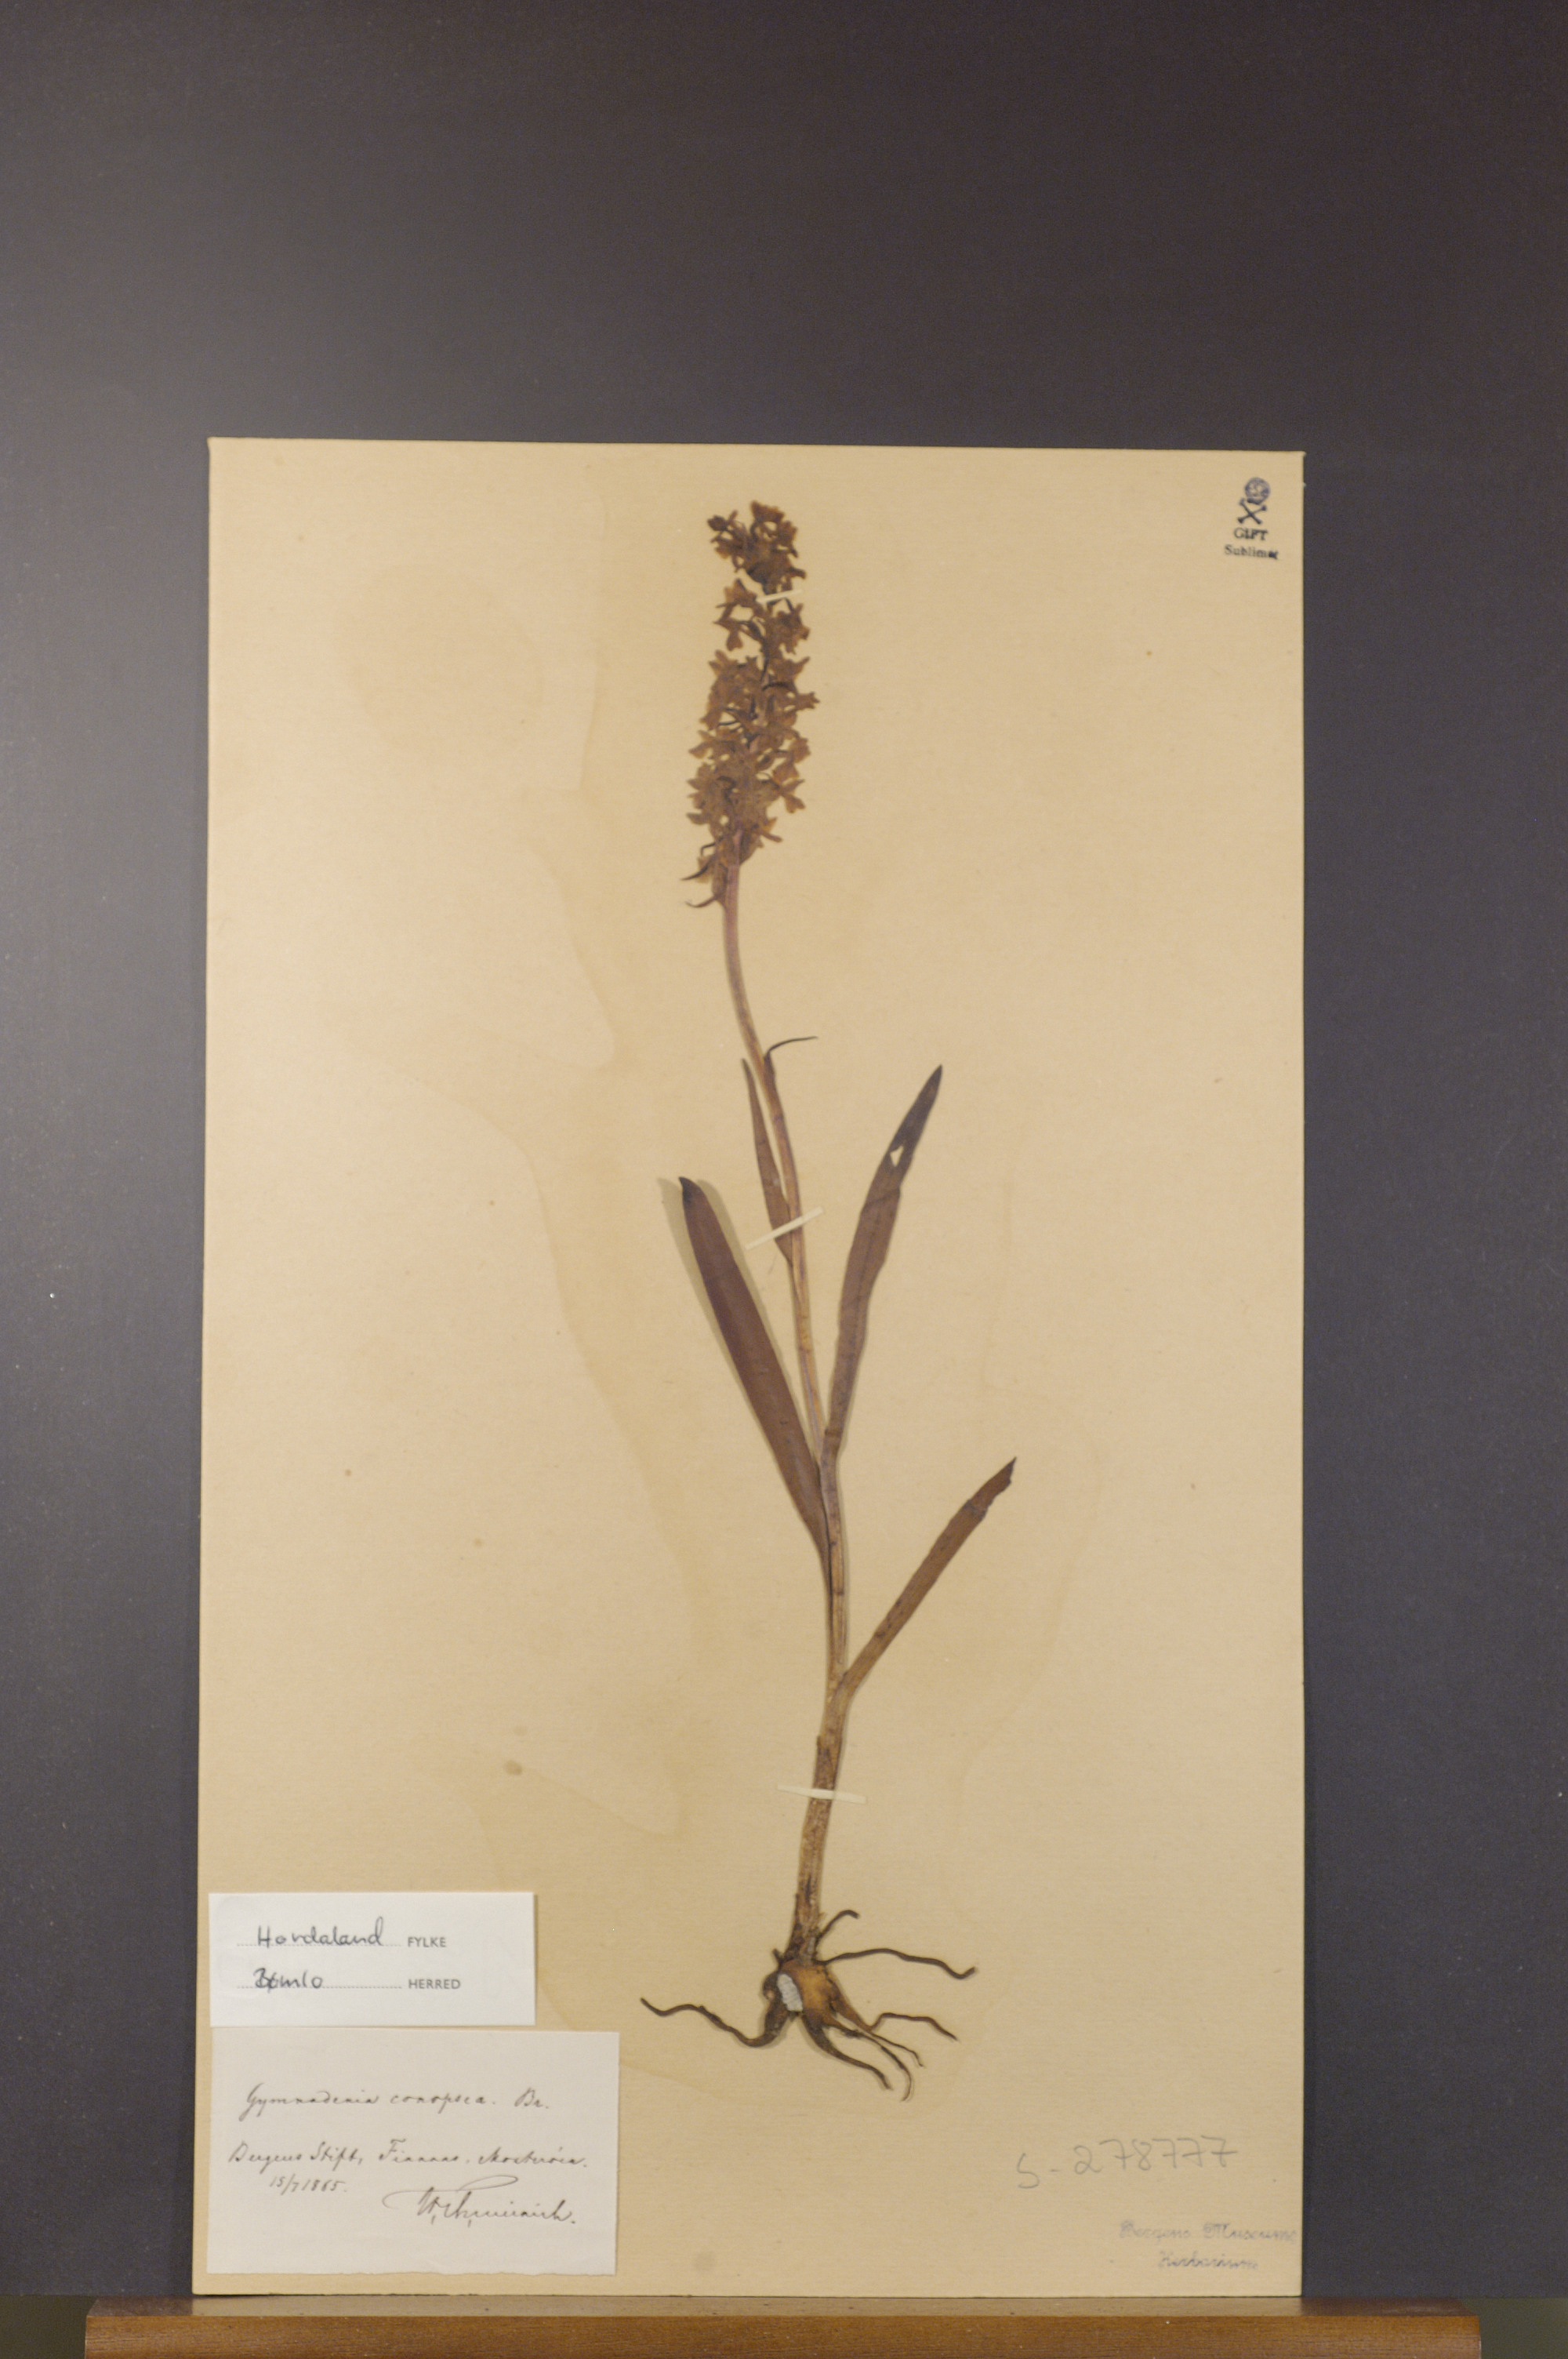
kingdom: Plantae
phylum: Tracheophyta
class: Liliopsida
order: Asparagales
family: Orchidaceae
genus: Gymnadenia
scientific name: Gymnadenia conopsea
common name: Fragrant orchid
